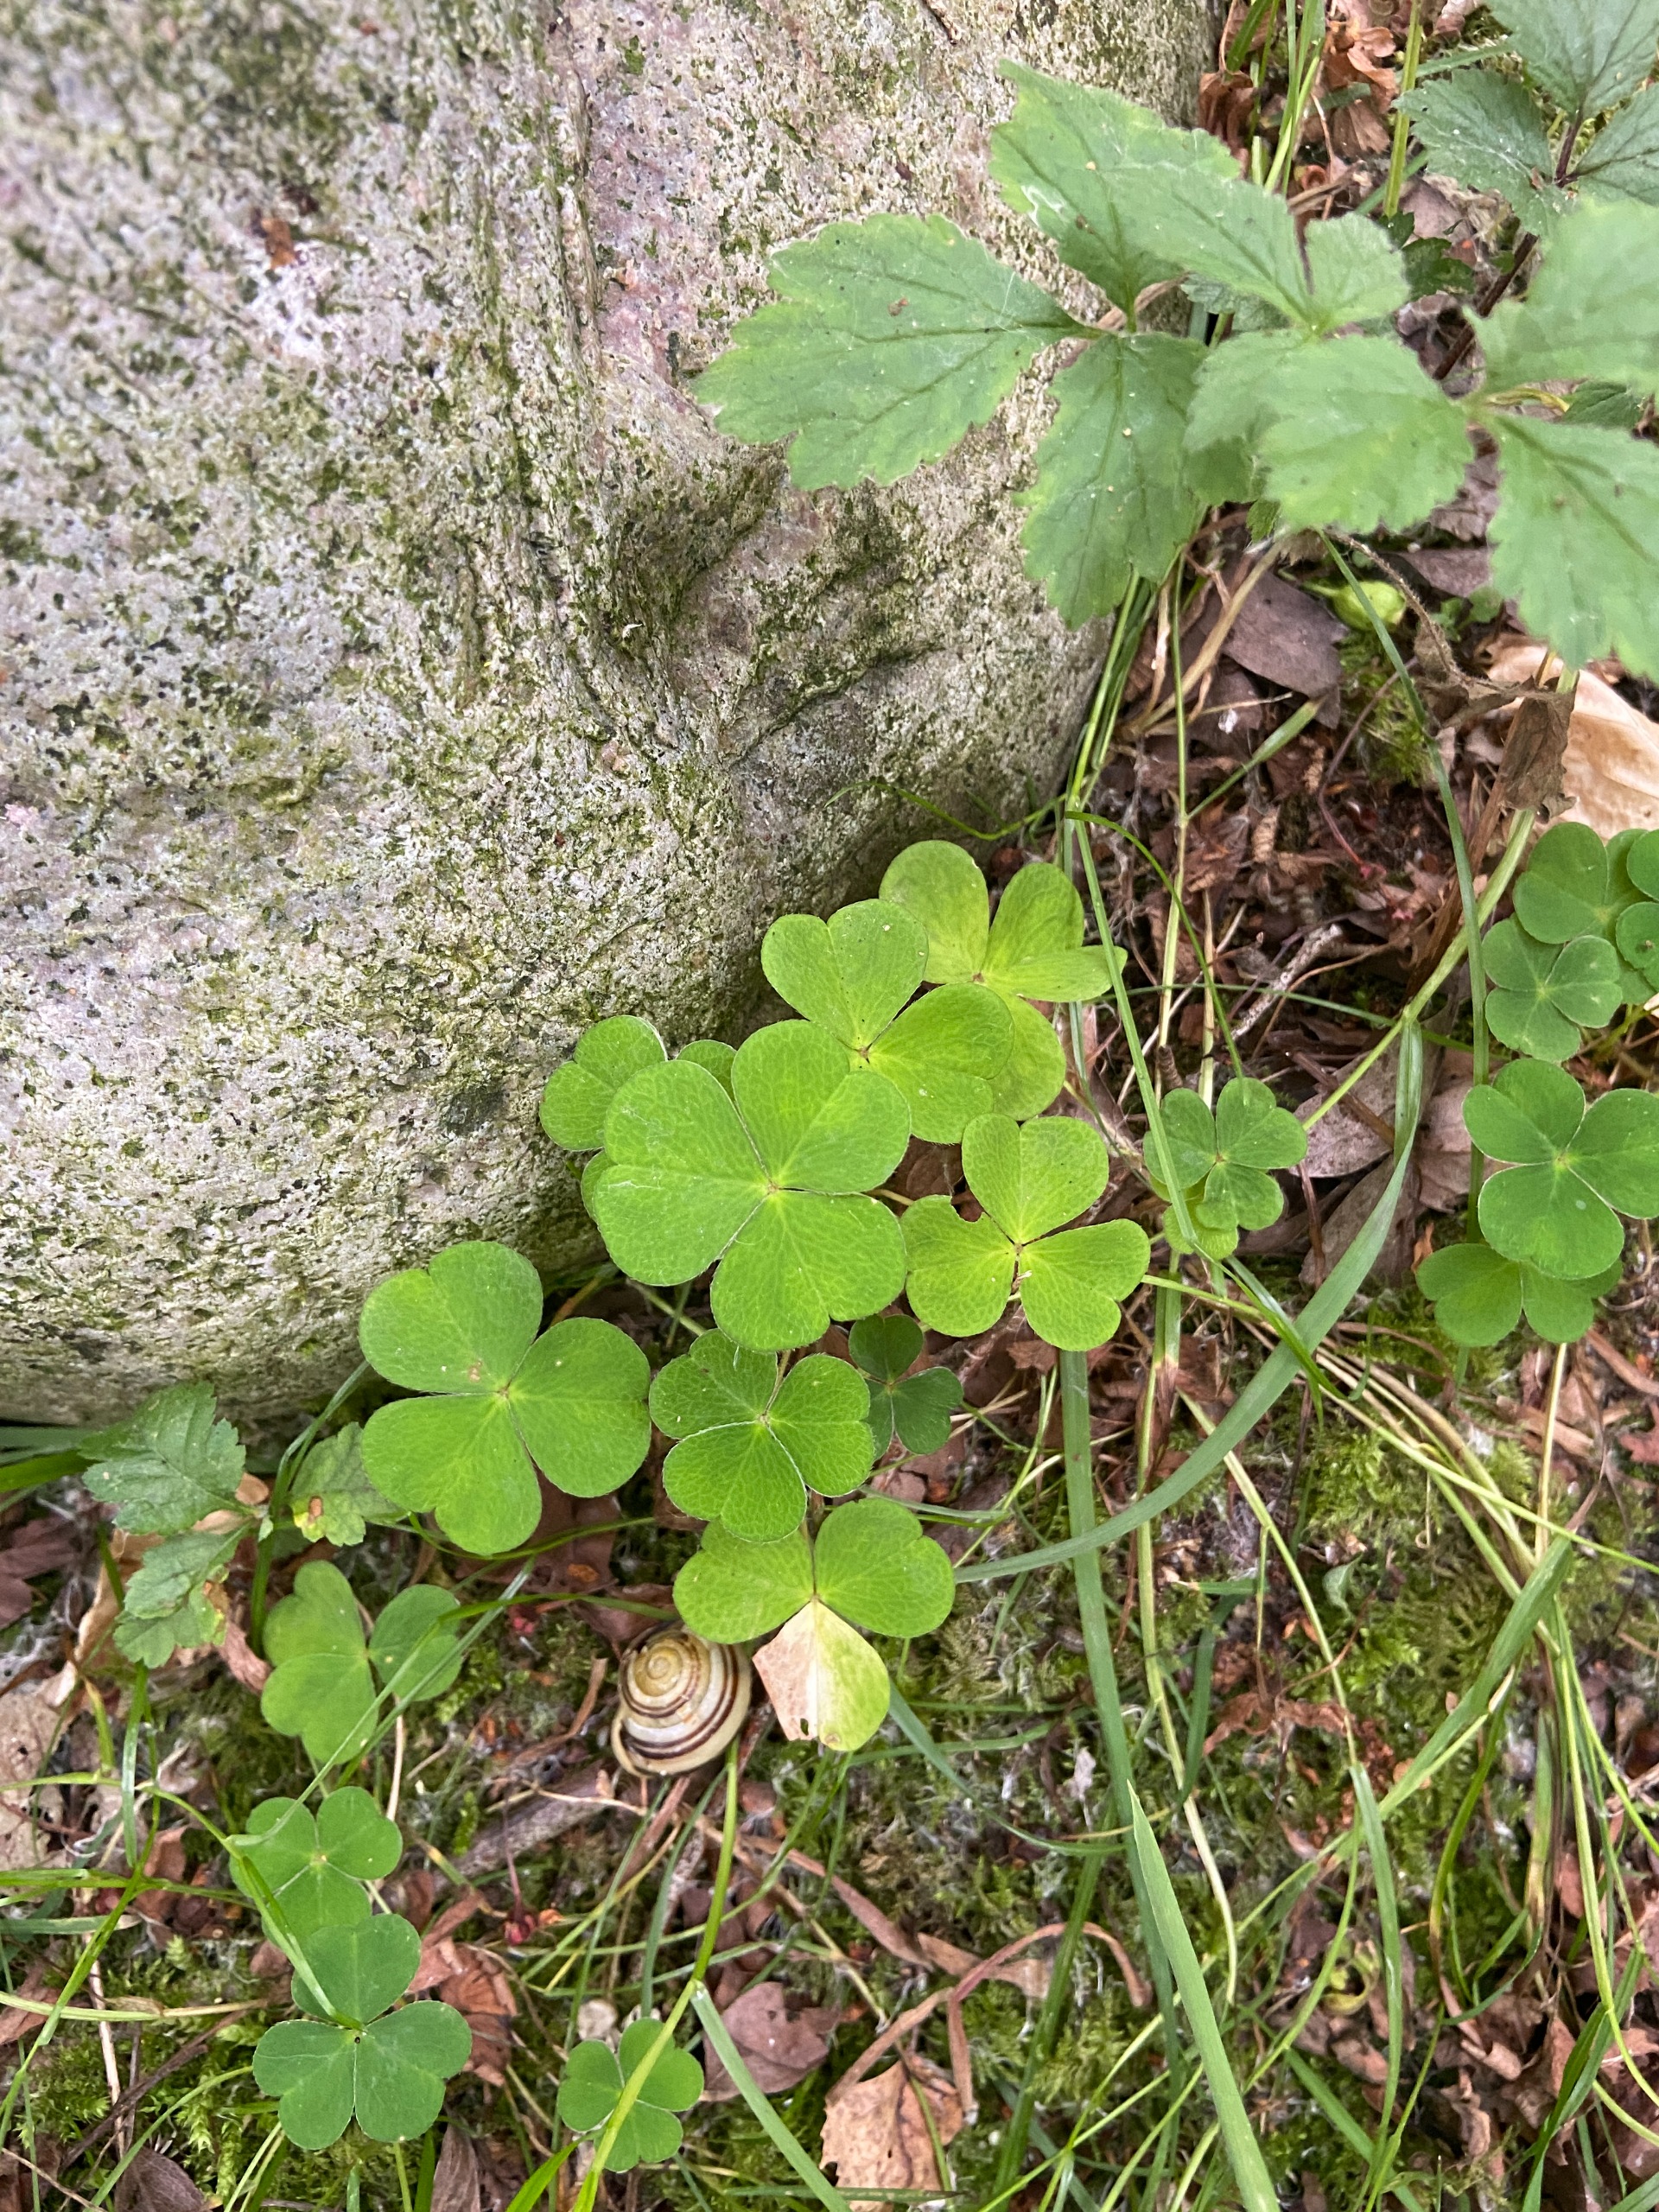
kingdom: Plantae
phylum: Tracheophyta
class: Magnoliopsida
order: Oxalidales
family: Oxalidaceae
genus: Oxalis
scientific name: Oxalis acetosella
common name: Skovsyre
